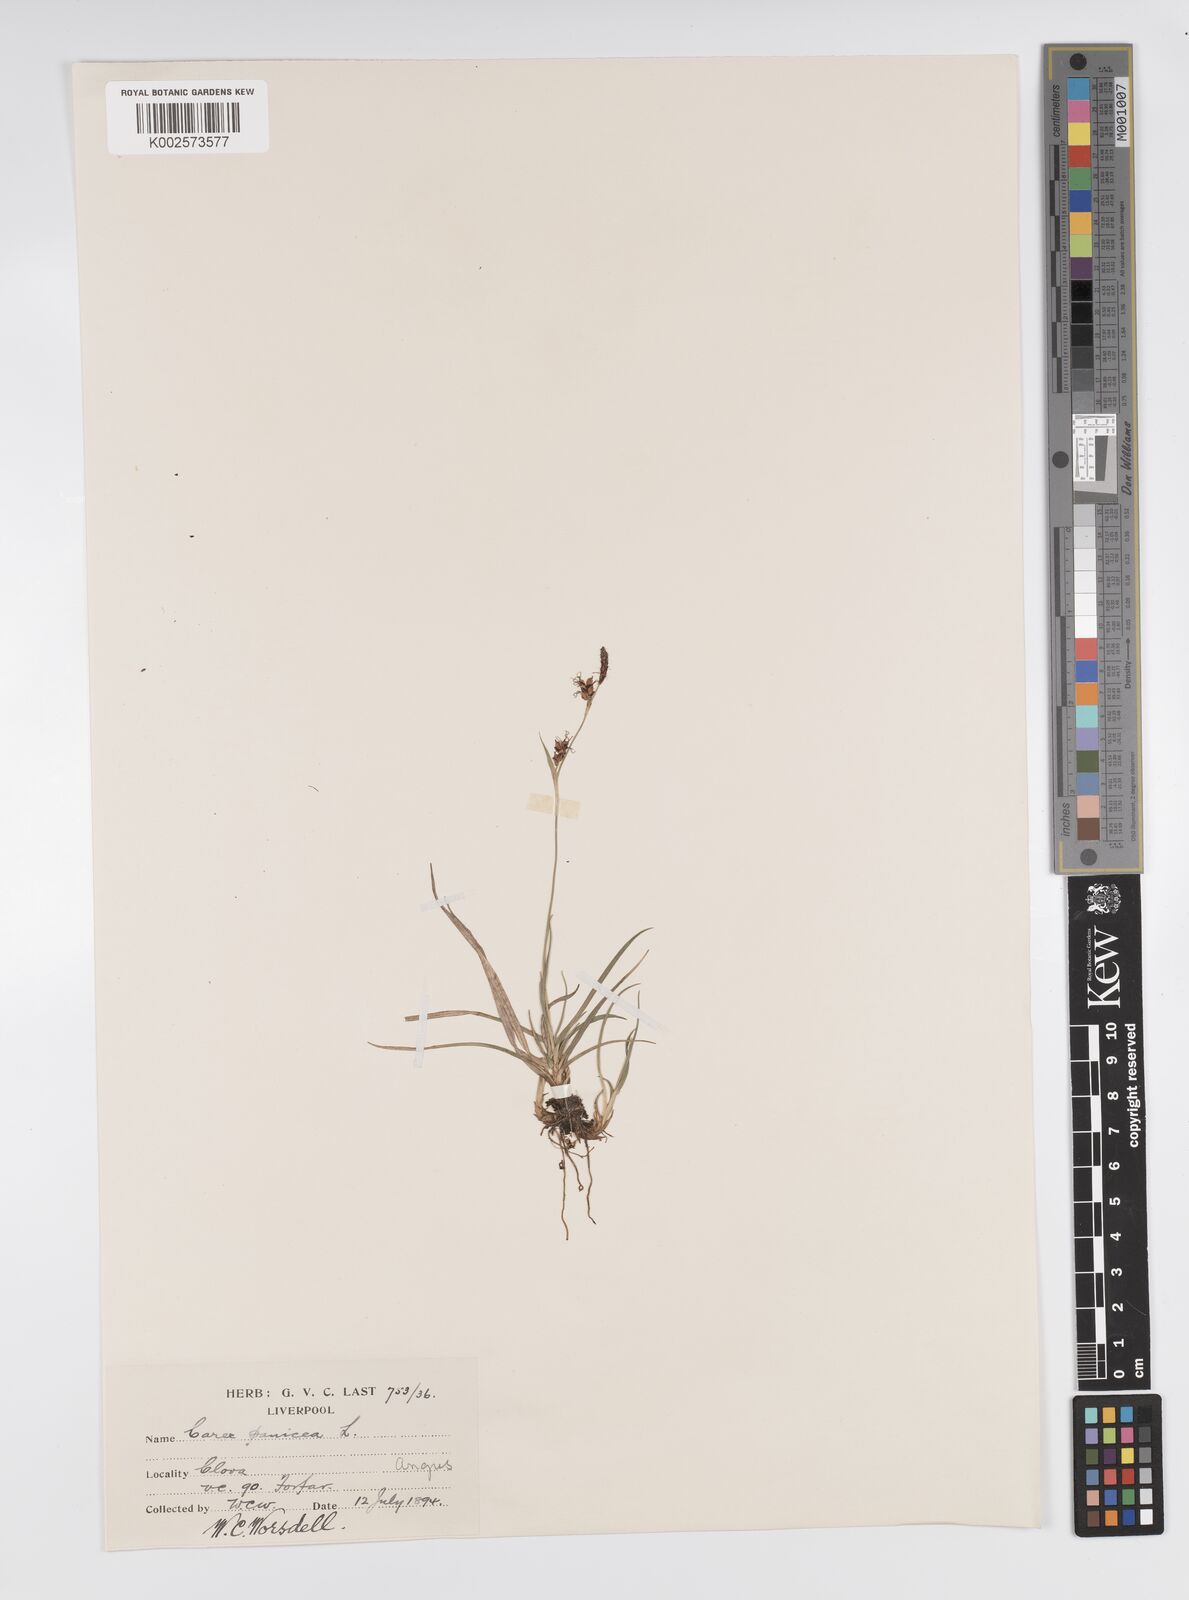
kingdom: Plantae
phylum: Tracheophyta
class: Liliopsida
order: Poales
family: Cyperaceae
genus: Carex
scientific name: Carex panicea
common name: Carnation sedge
